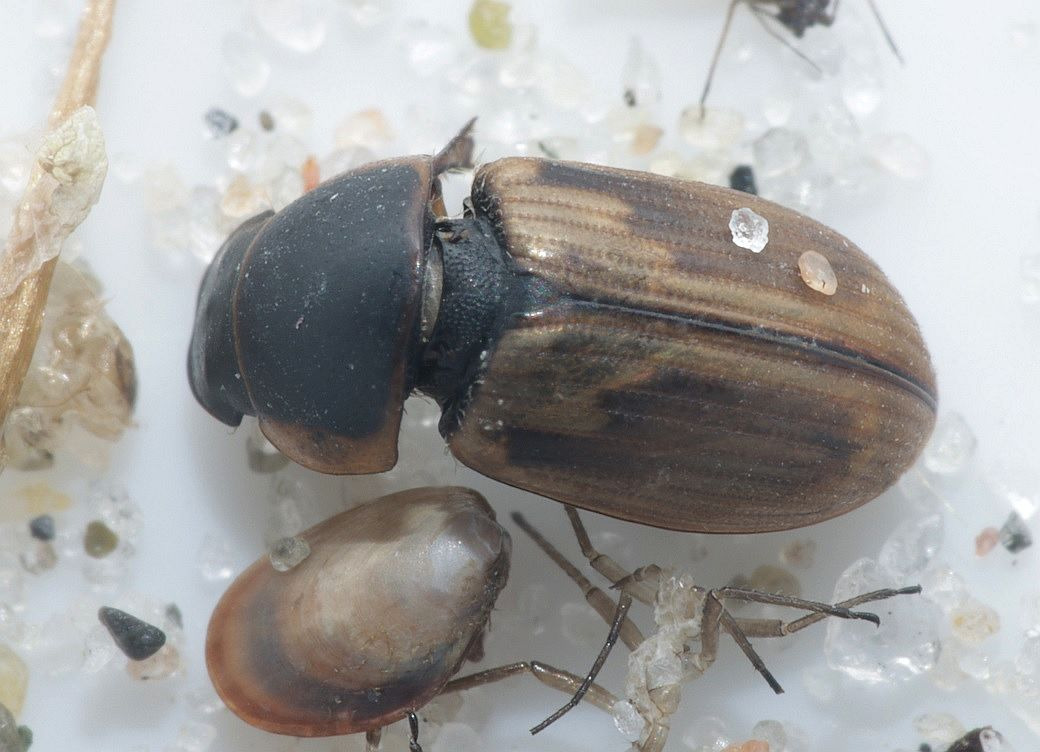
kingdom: Animalia
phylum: Arthropoda
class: Insecta
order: Coleoptera
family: Scarabaeidae
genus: Melinopterus
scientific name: Melinopterus sphacelatus
